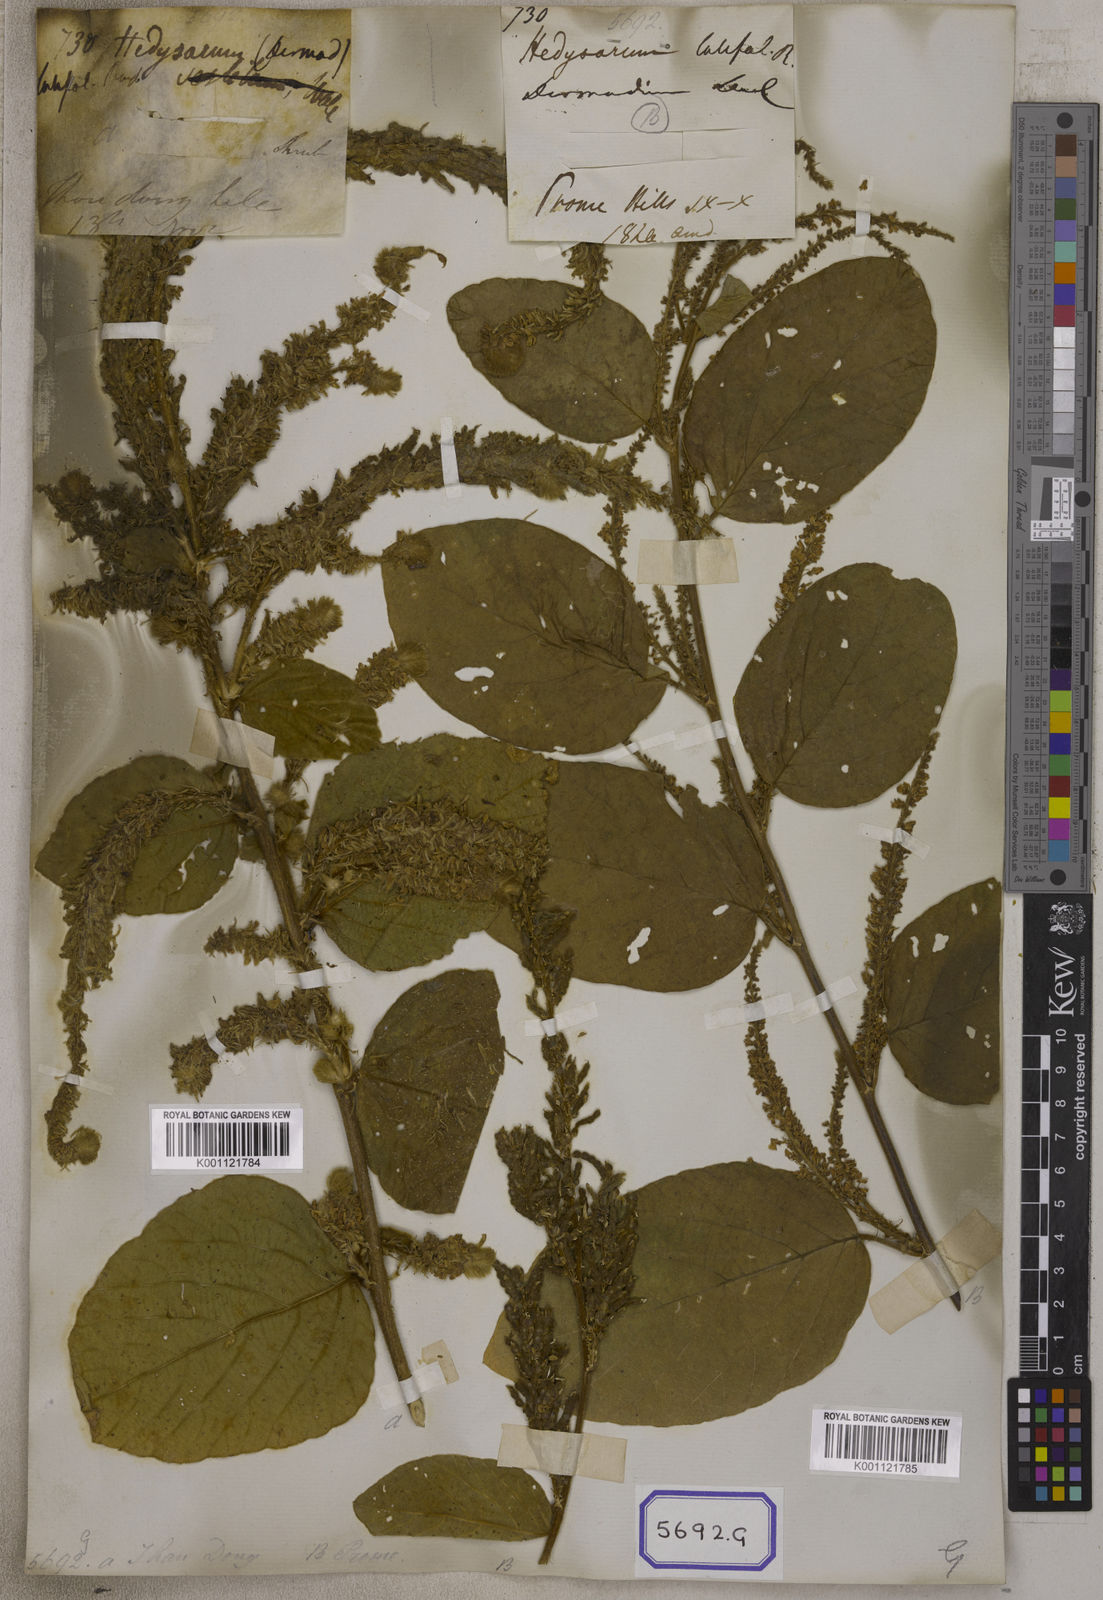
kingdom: Plantae
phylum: Tracheophyta
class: Magnoliopsida
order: Fabales
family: Fabaceae
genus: Polhillides
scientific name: Polhillides velutina
